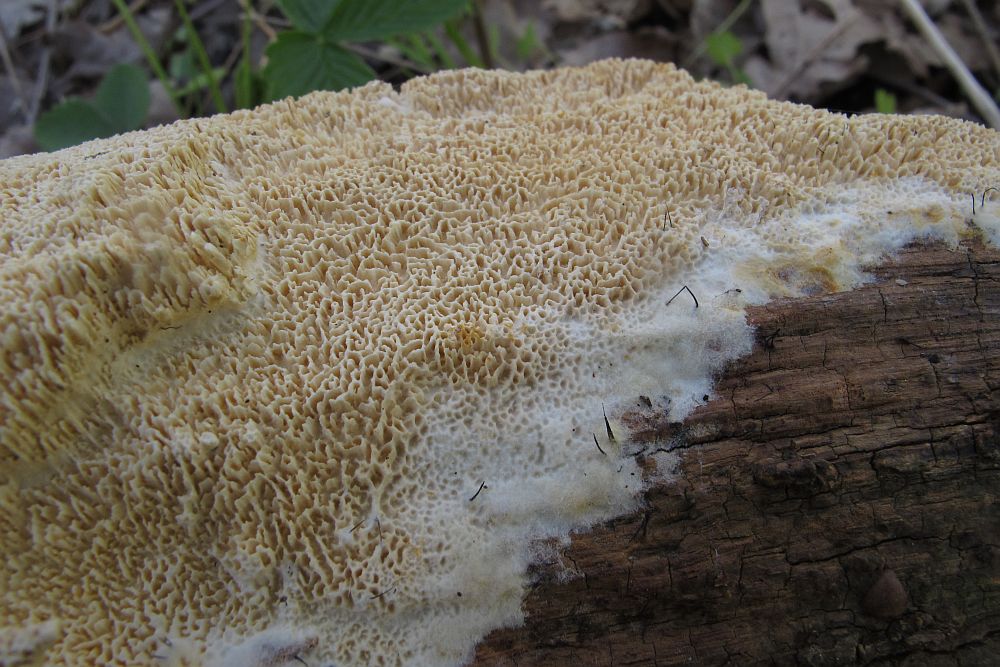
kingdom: Fungi
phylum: Basidiomycota
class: Agaricomycetes
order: Hymenochaetales
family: Schizoporaceae
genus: Xylodon
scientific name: Xylodon subtropicus
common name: labyrint-tandsvamp
